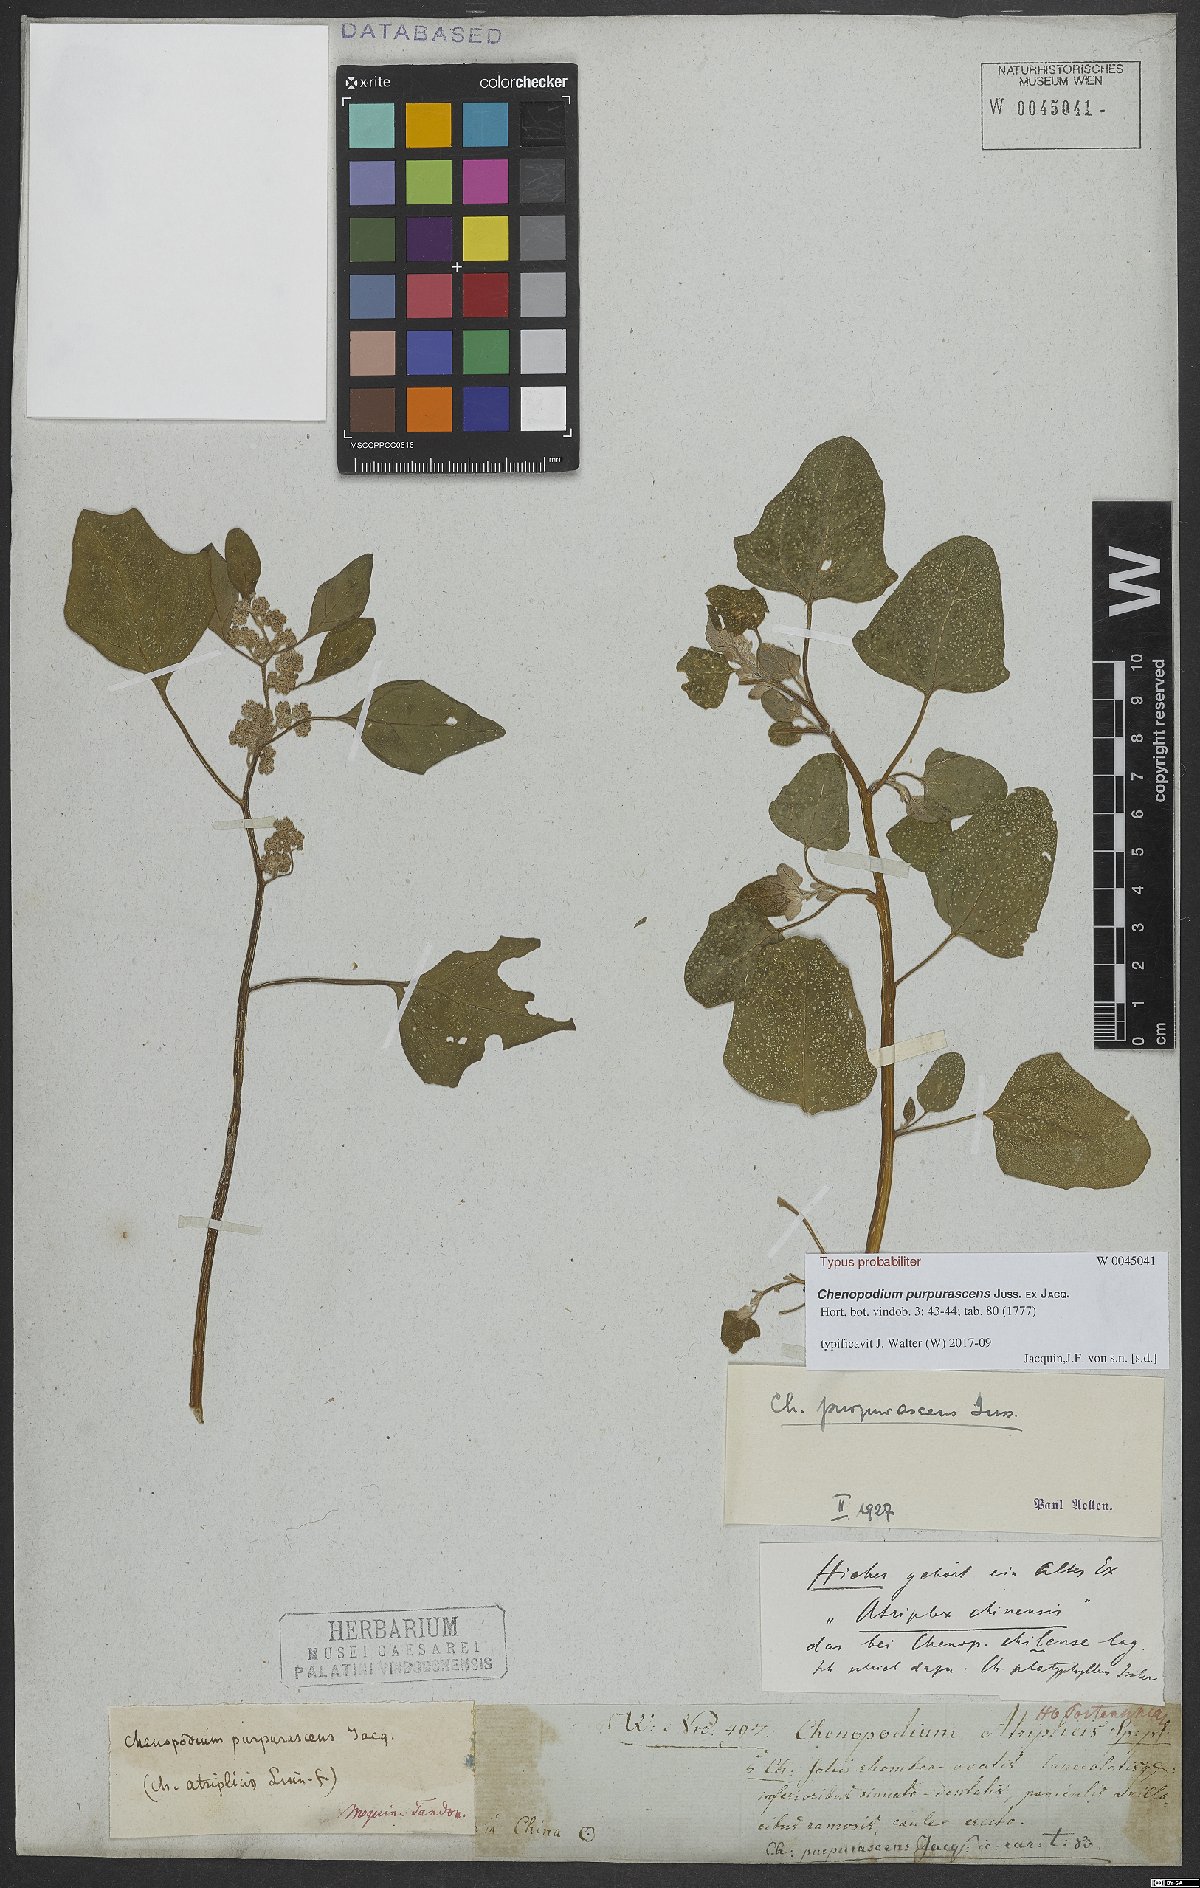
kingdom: Plantae
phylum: Tracheophyta
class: Magnoliopsida
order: Caryophyllales
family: Amaranthaceae
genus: Chenopodium
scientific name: Chenopodium quinoa
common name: Quinoa
